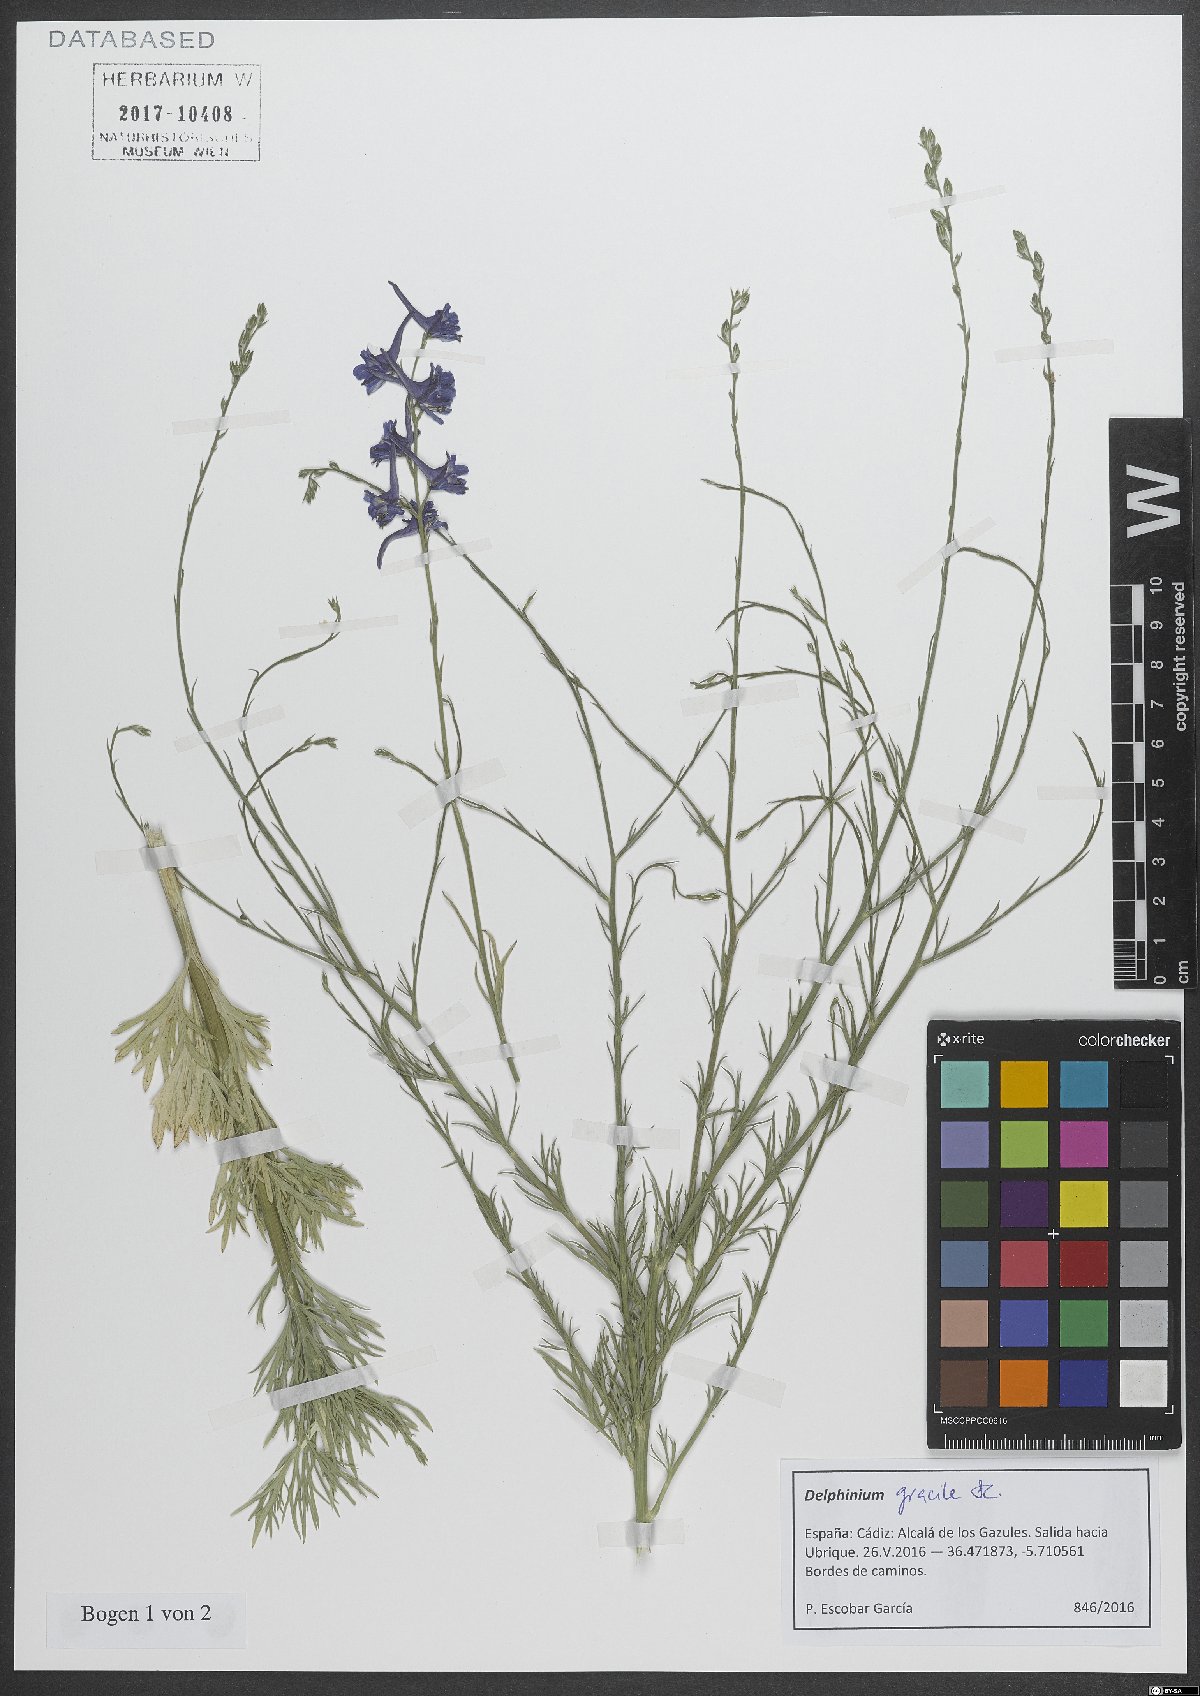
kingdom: Plantae
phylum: Tracheophyta
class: Magnoliopsida
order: Ranunculales
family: Ranunculaceae
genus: Delphinium
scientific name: Delphinium gracile
